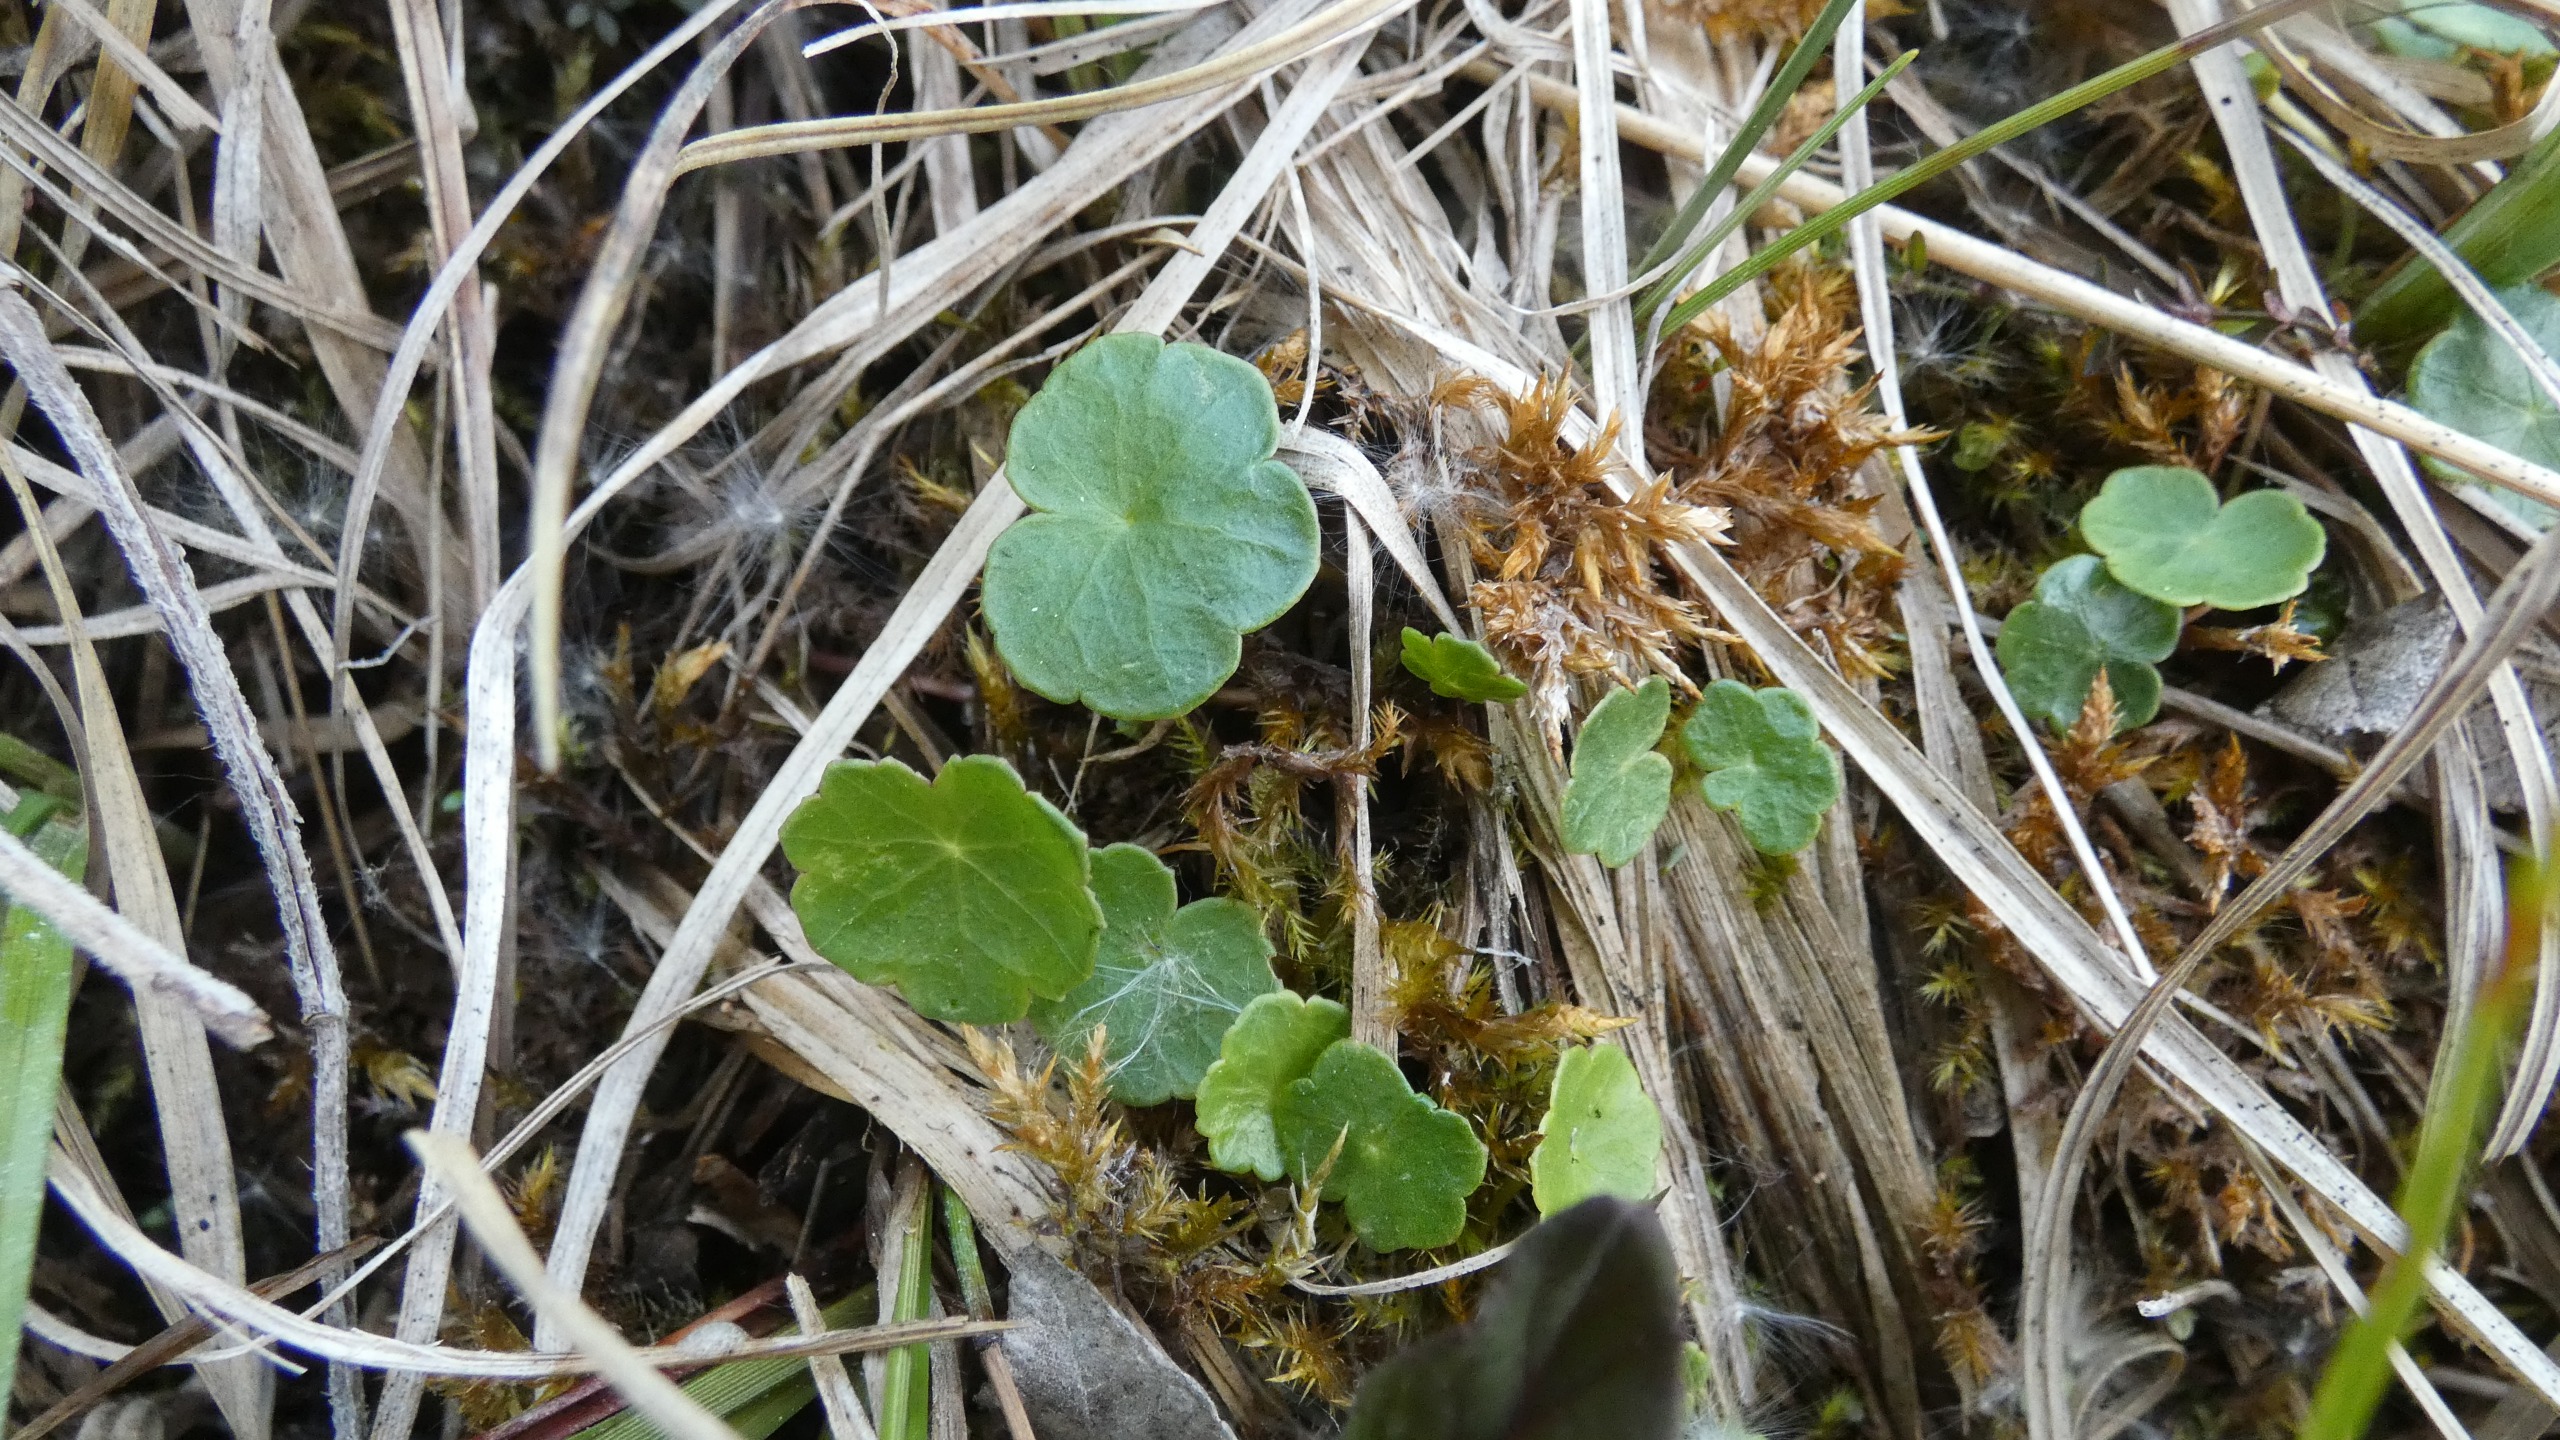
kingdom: Plantae
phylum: Tracheophyta
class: Magnoliopsida
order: Apiales
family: Araliaceae
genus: Hydrocotyle
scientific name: Hydrocotyle vulgaris
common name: Vandnavle
